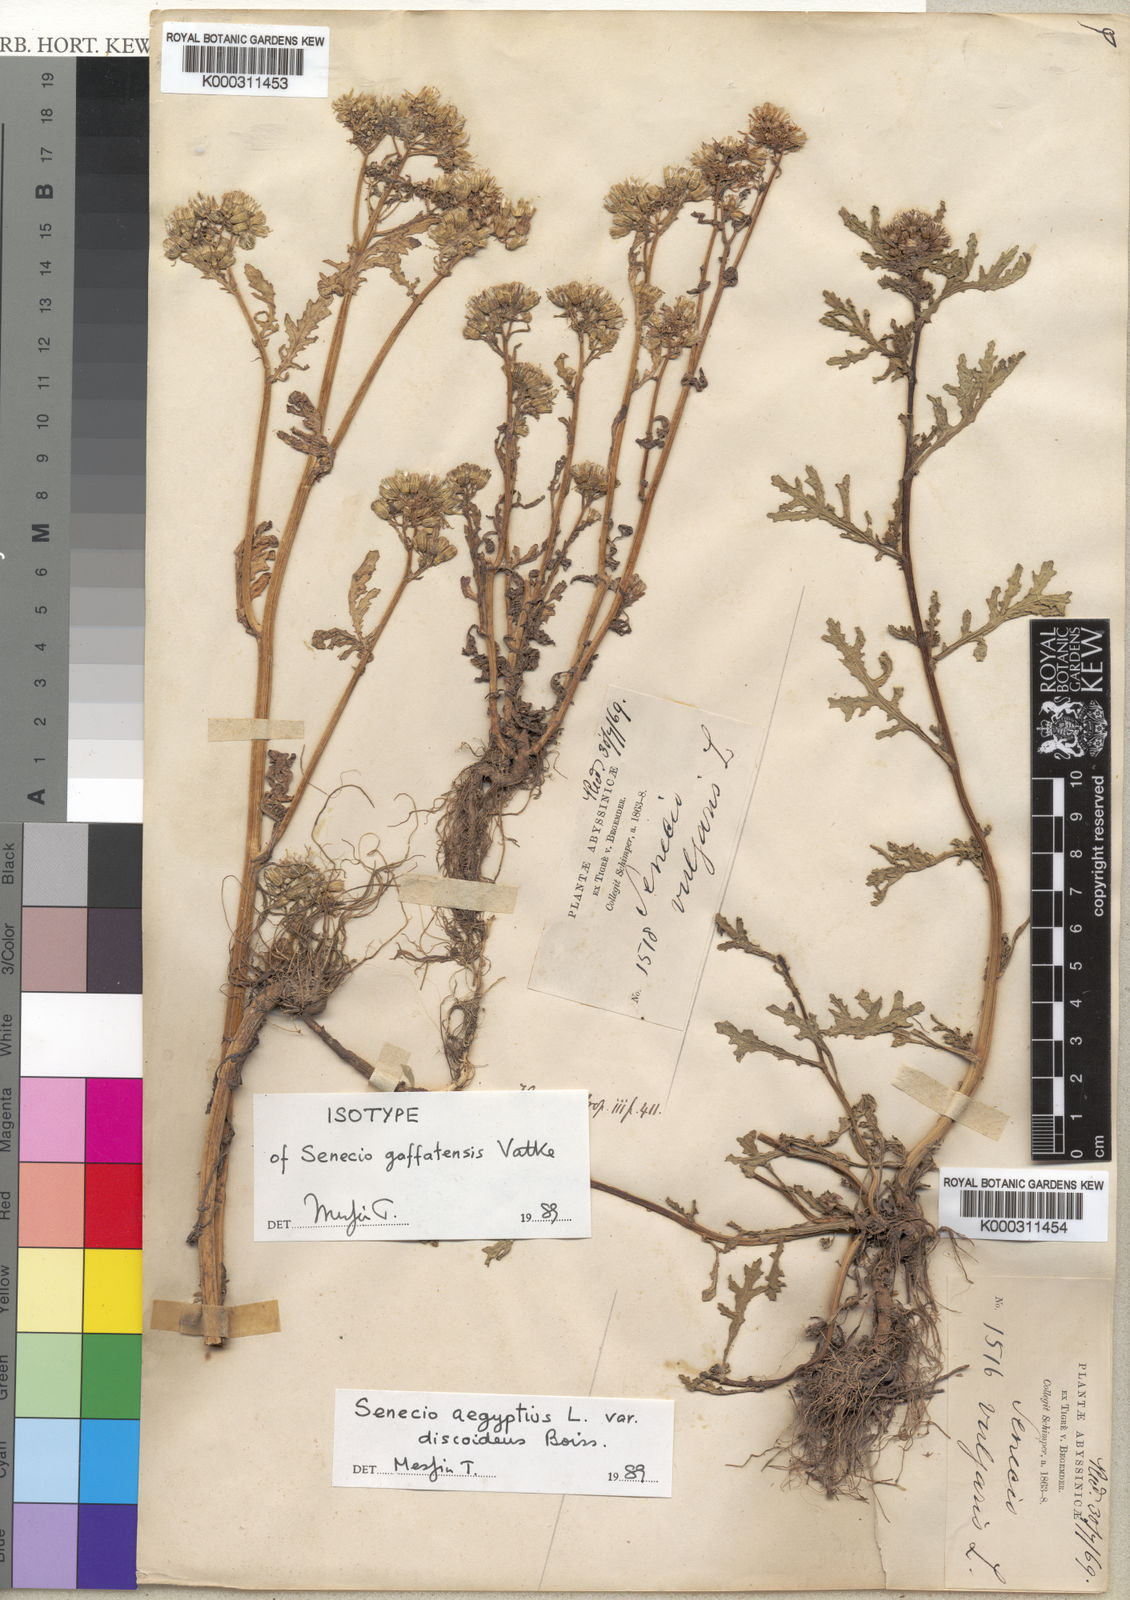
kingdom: Plantae
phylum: Tracheophyta
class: Magnoliopsida
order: Asterales
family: Asteraceae
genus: Senecio
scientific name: Senecio aegyptius
